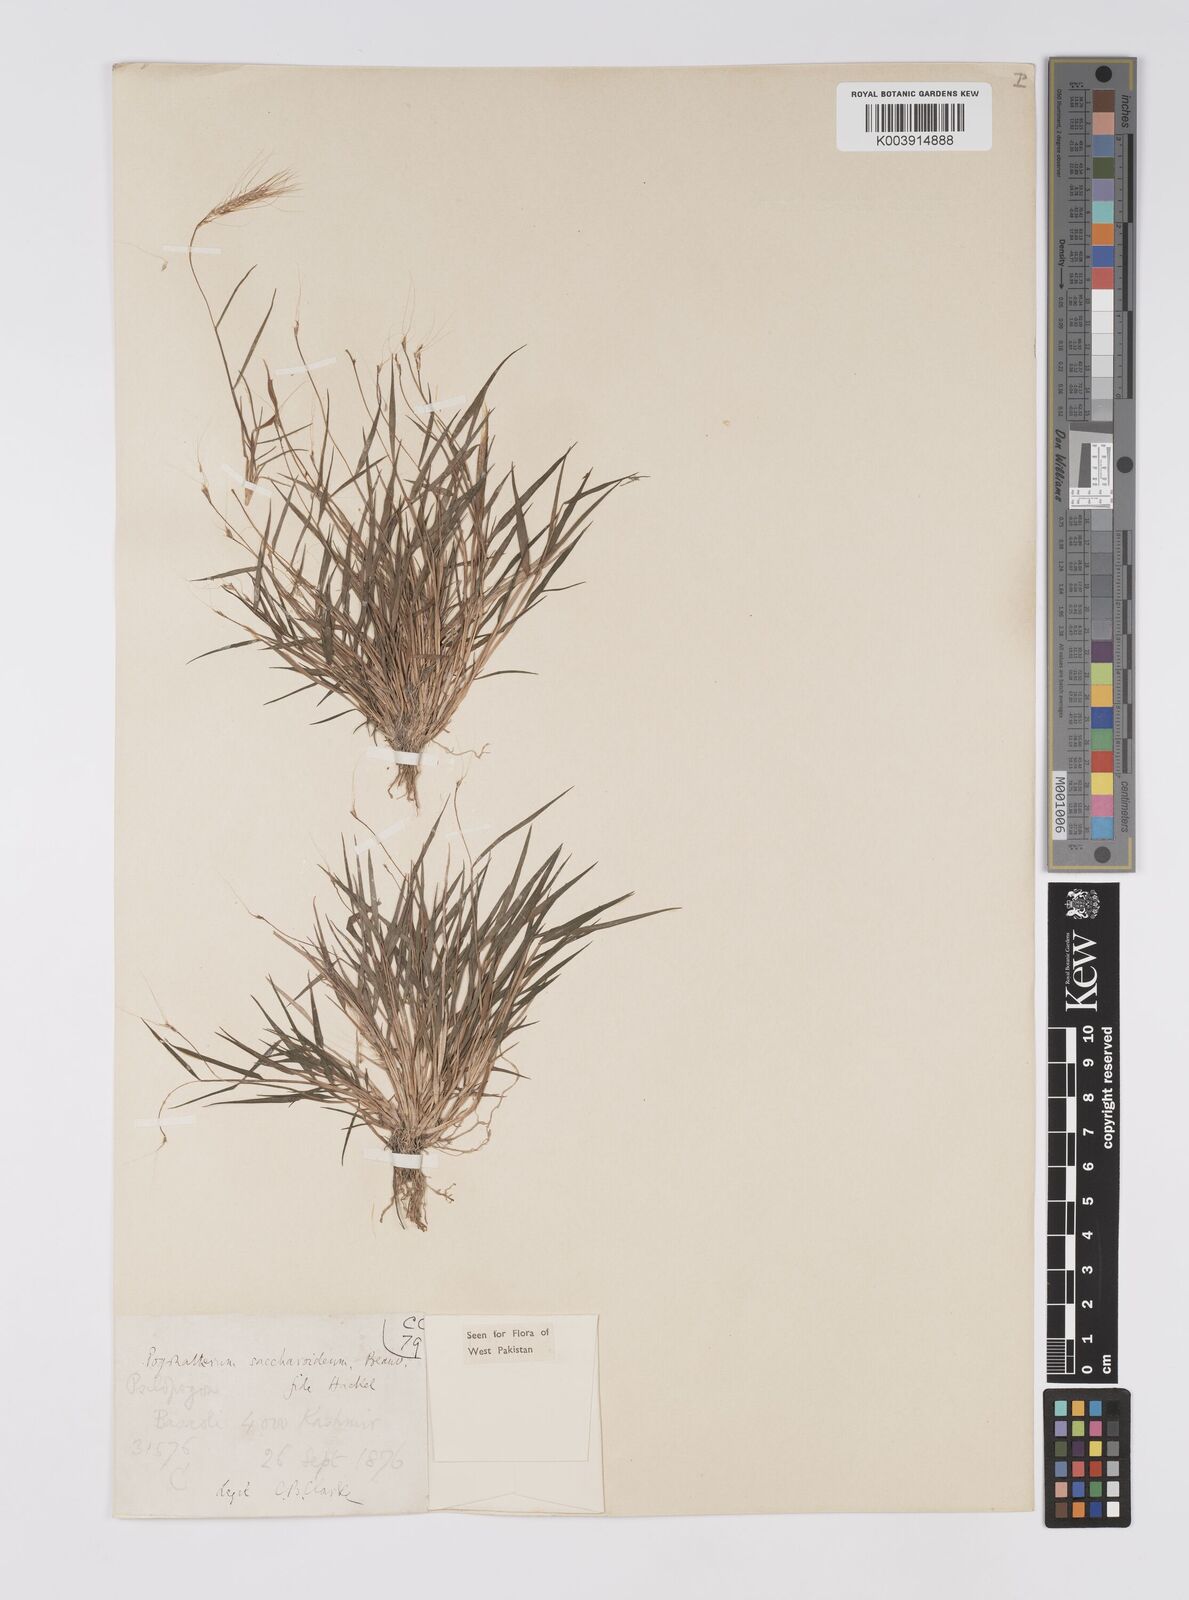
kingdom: Plantae
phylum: Tracheophyta
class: Liliopsida
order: Poales
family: Poaceae
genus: Pogonatherum
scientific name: Pogonatherum paniceum
